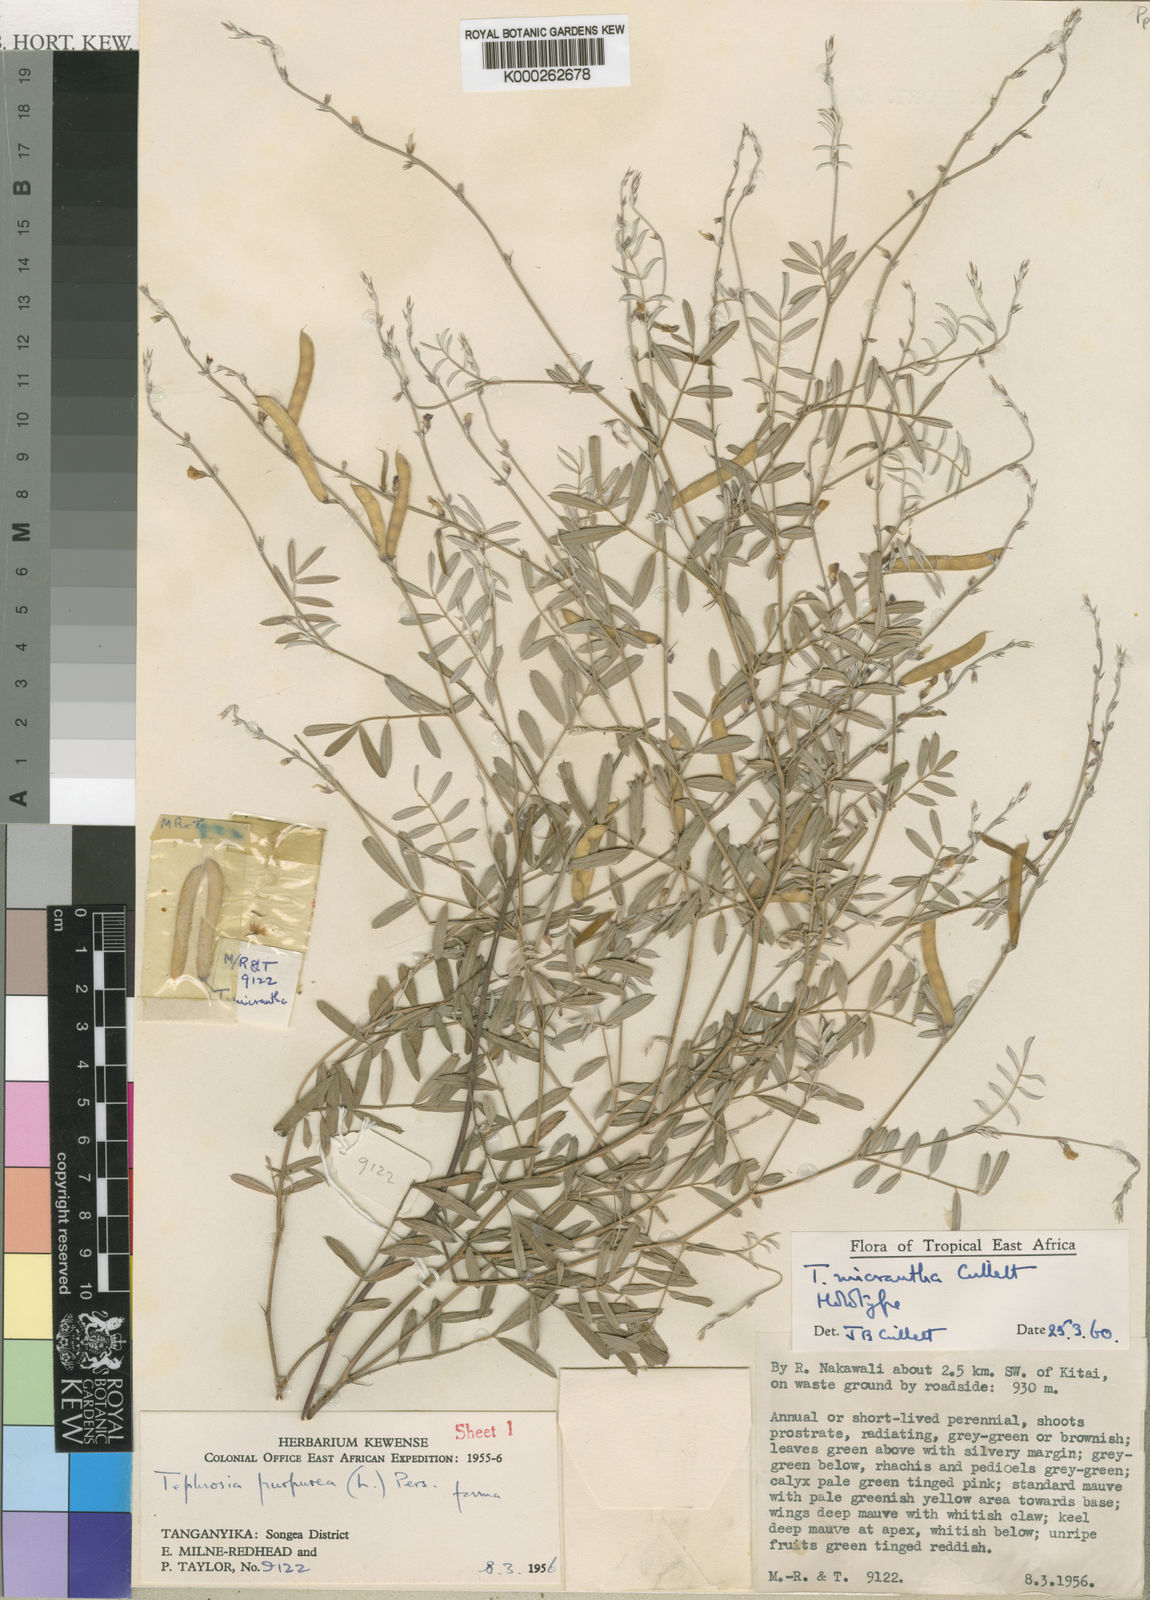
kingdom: Plantae
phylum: Tracheophyta
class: Magnoliopsida
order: Fabales
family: Fabaceae
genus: Tephrosia
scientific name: Tephrosia micrantha
